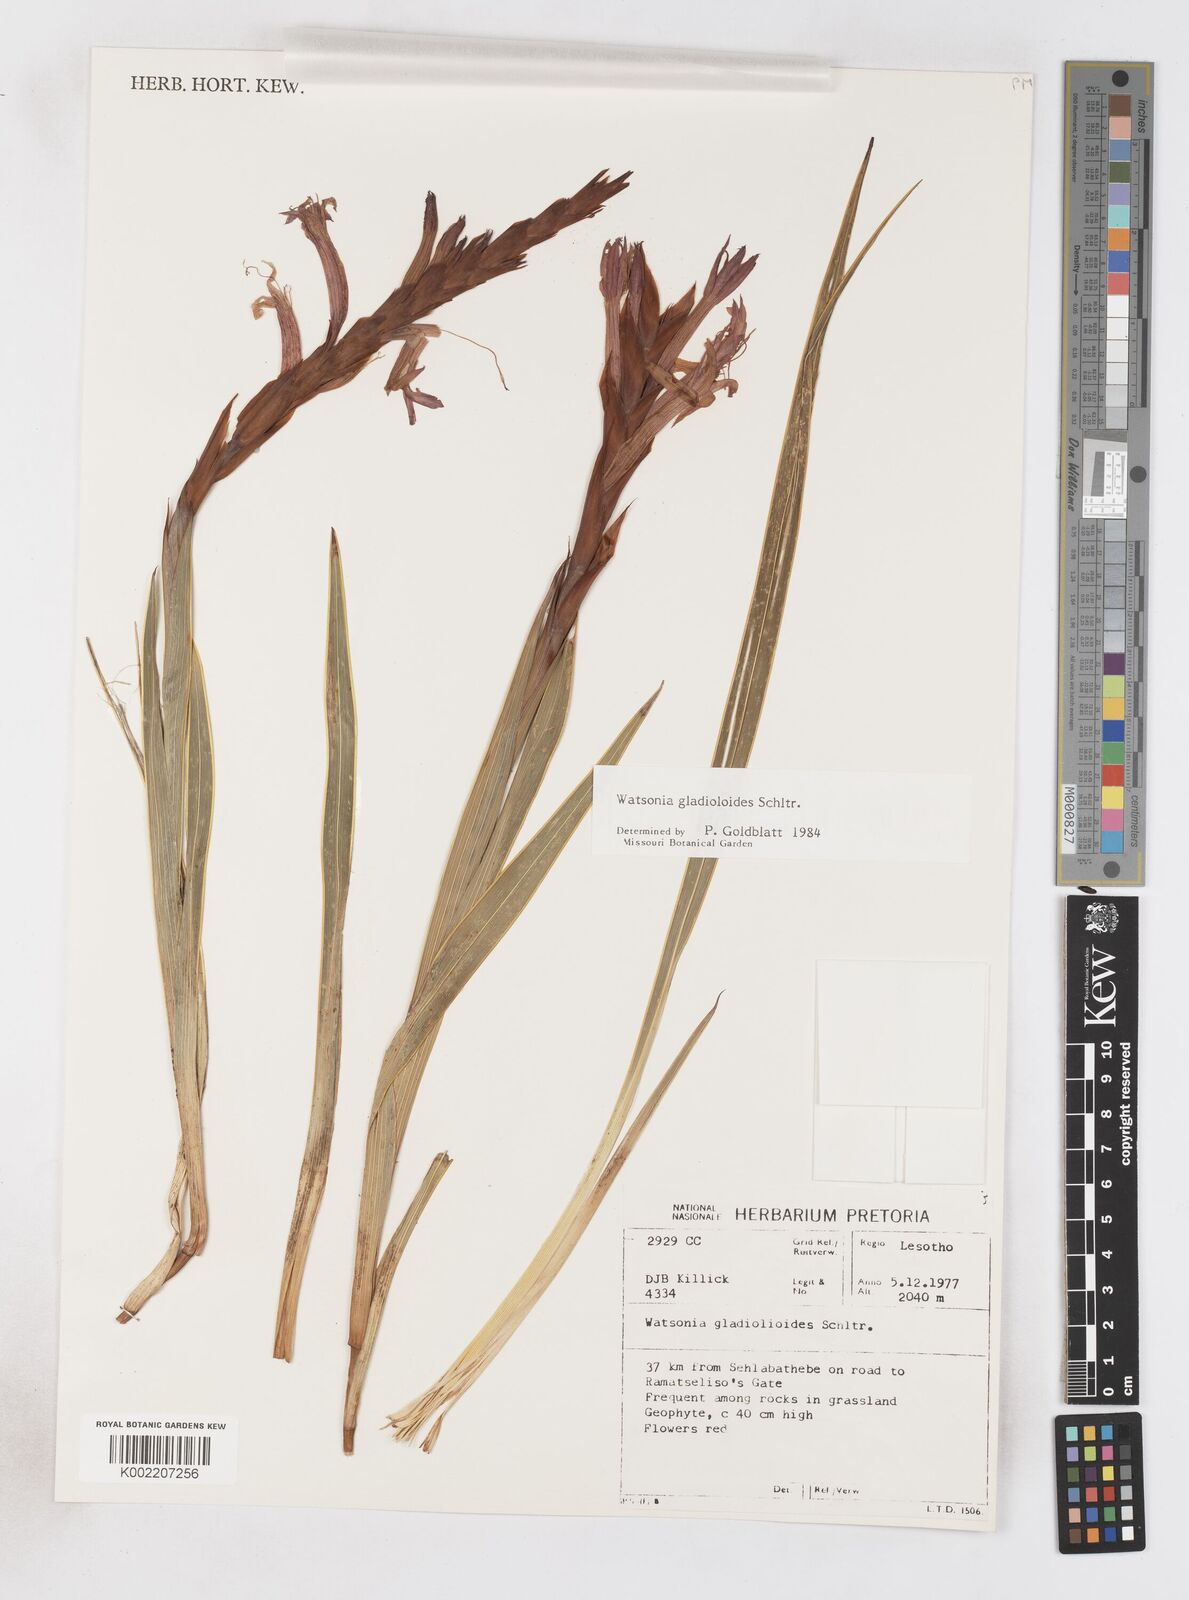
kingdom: Plantae
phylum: Tracheophyta
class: Liliopsida
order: Asparagales
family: Iridaceae
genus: Watsonia
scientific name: Watsonia gladioloides
